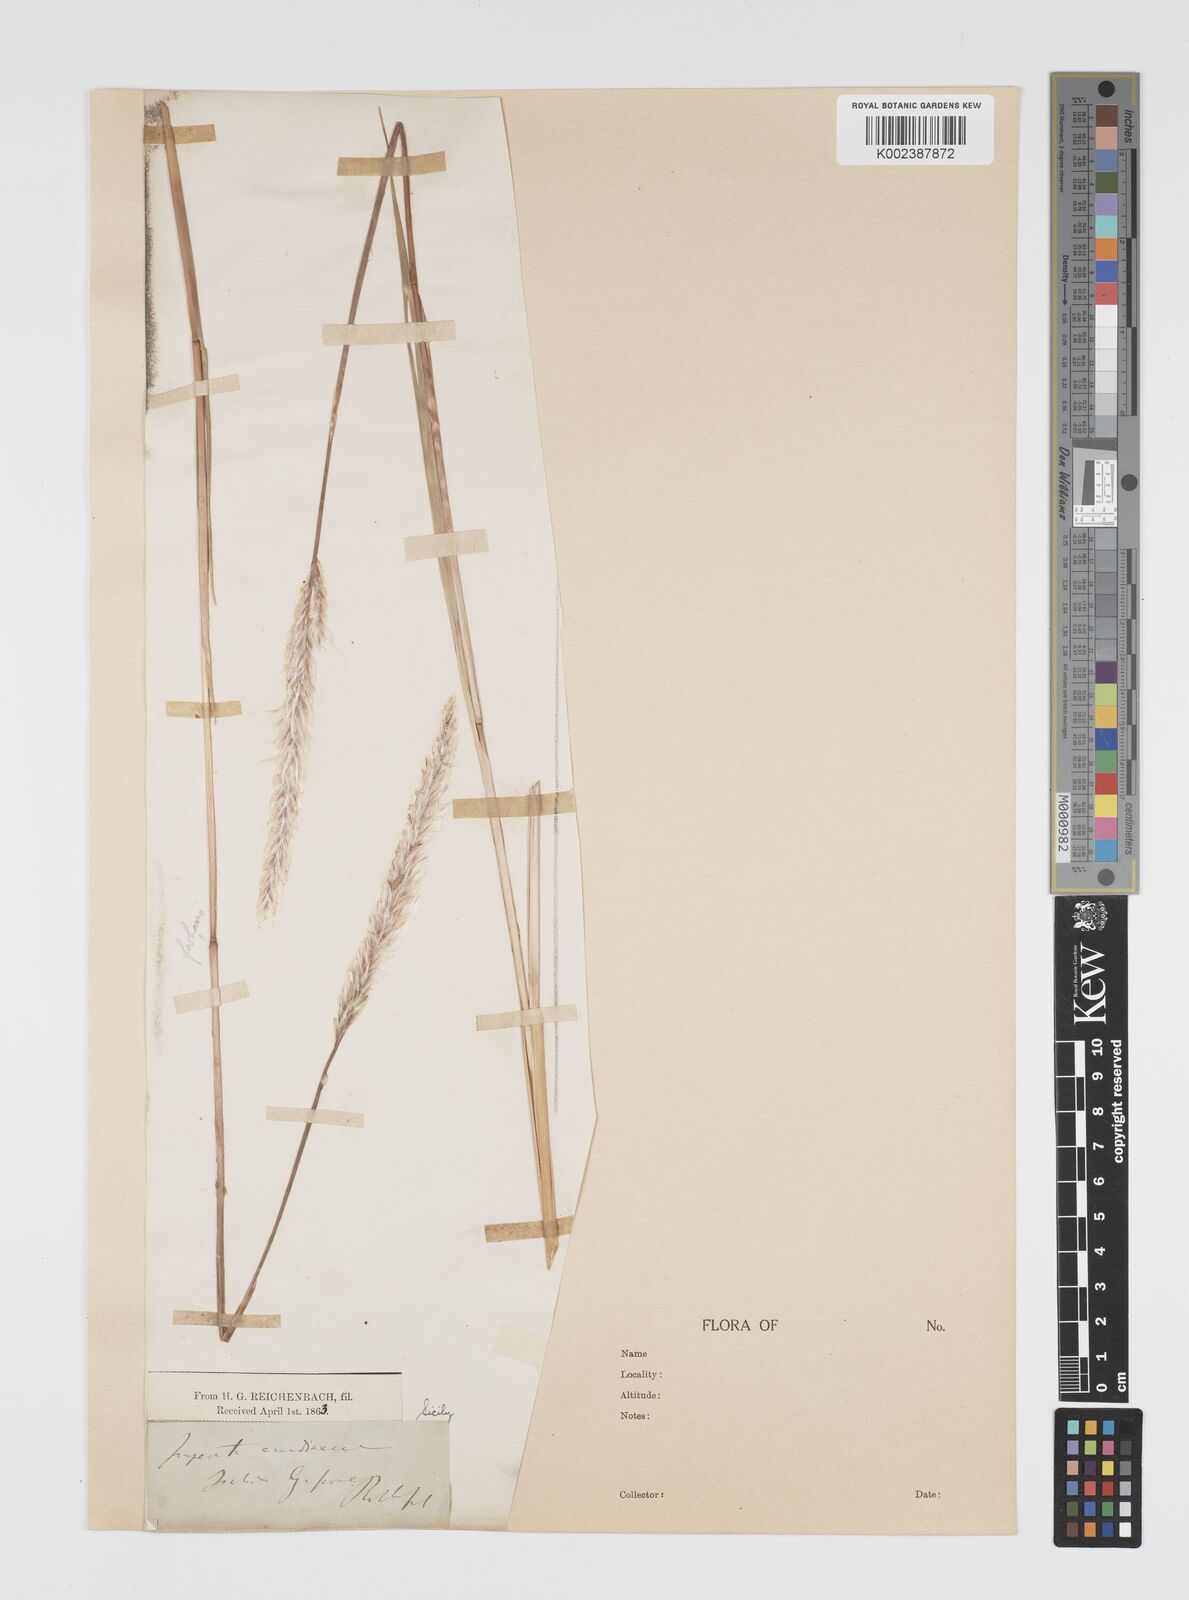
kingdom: Plantae
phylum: Tracheophyta
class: Liliopsida
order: Poales
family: Poaceae
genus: Imperata
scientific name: Imperata cylindrica
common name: Cogongrass
